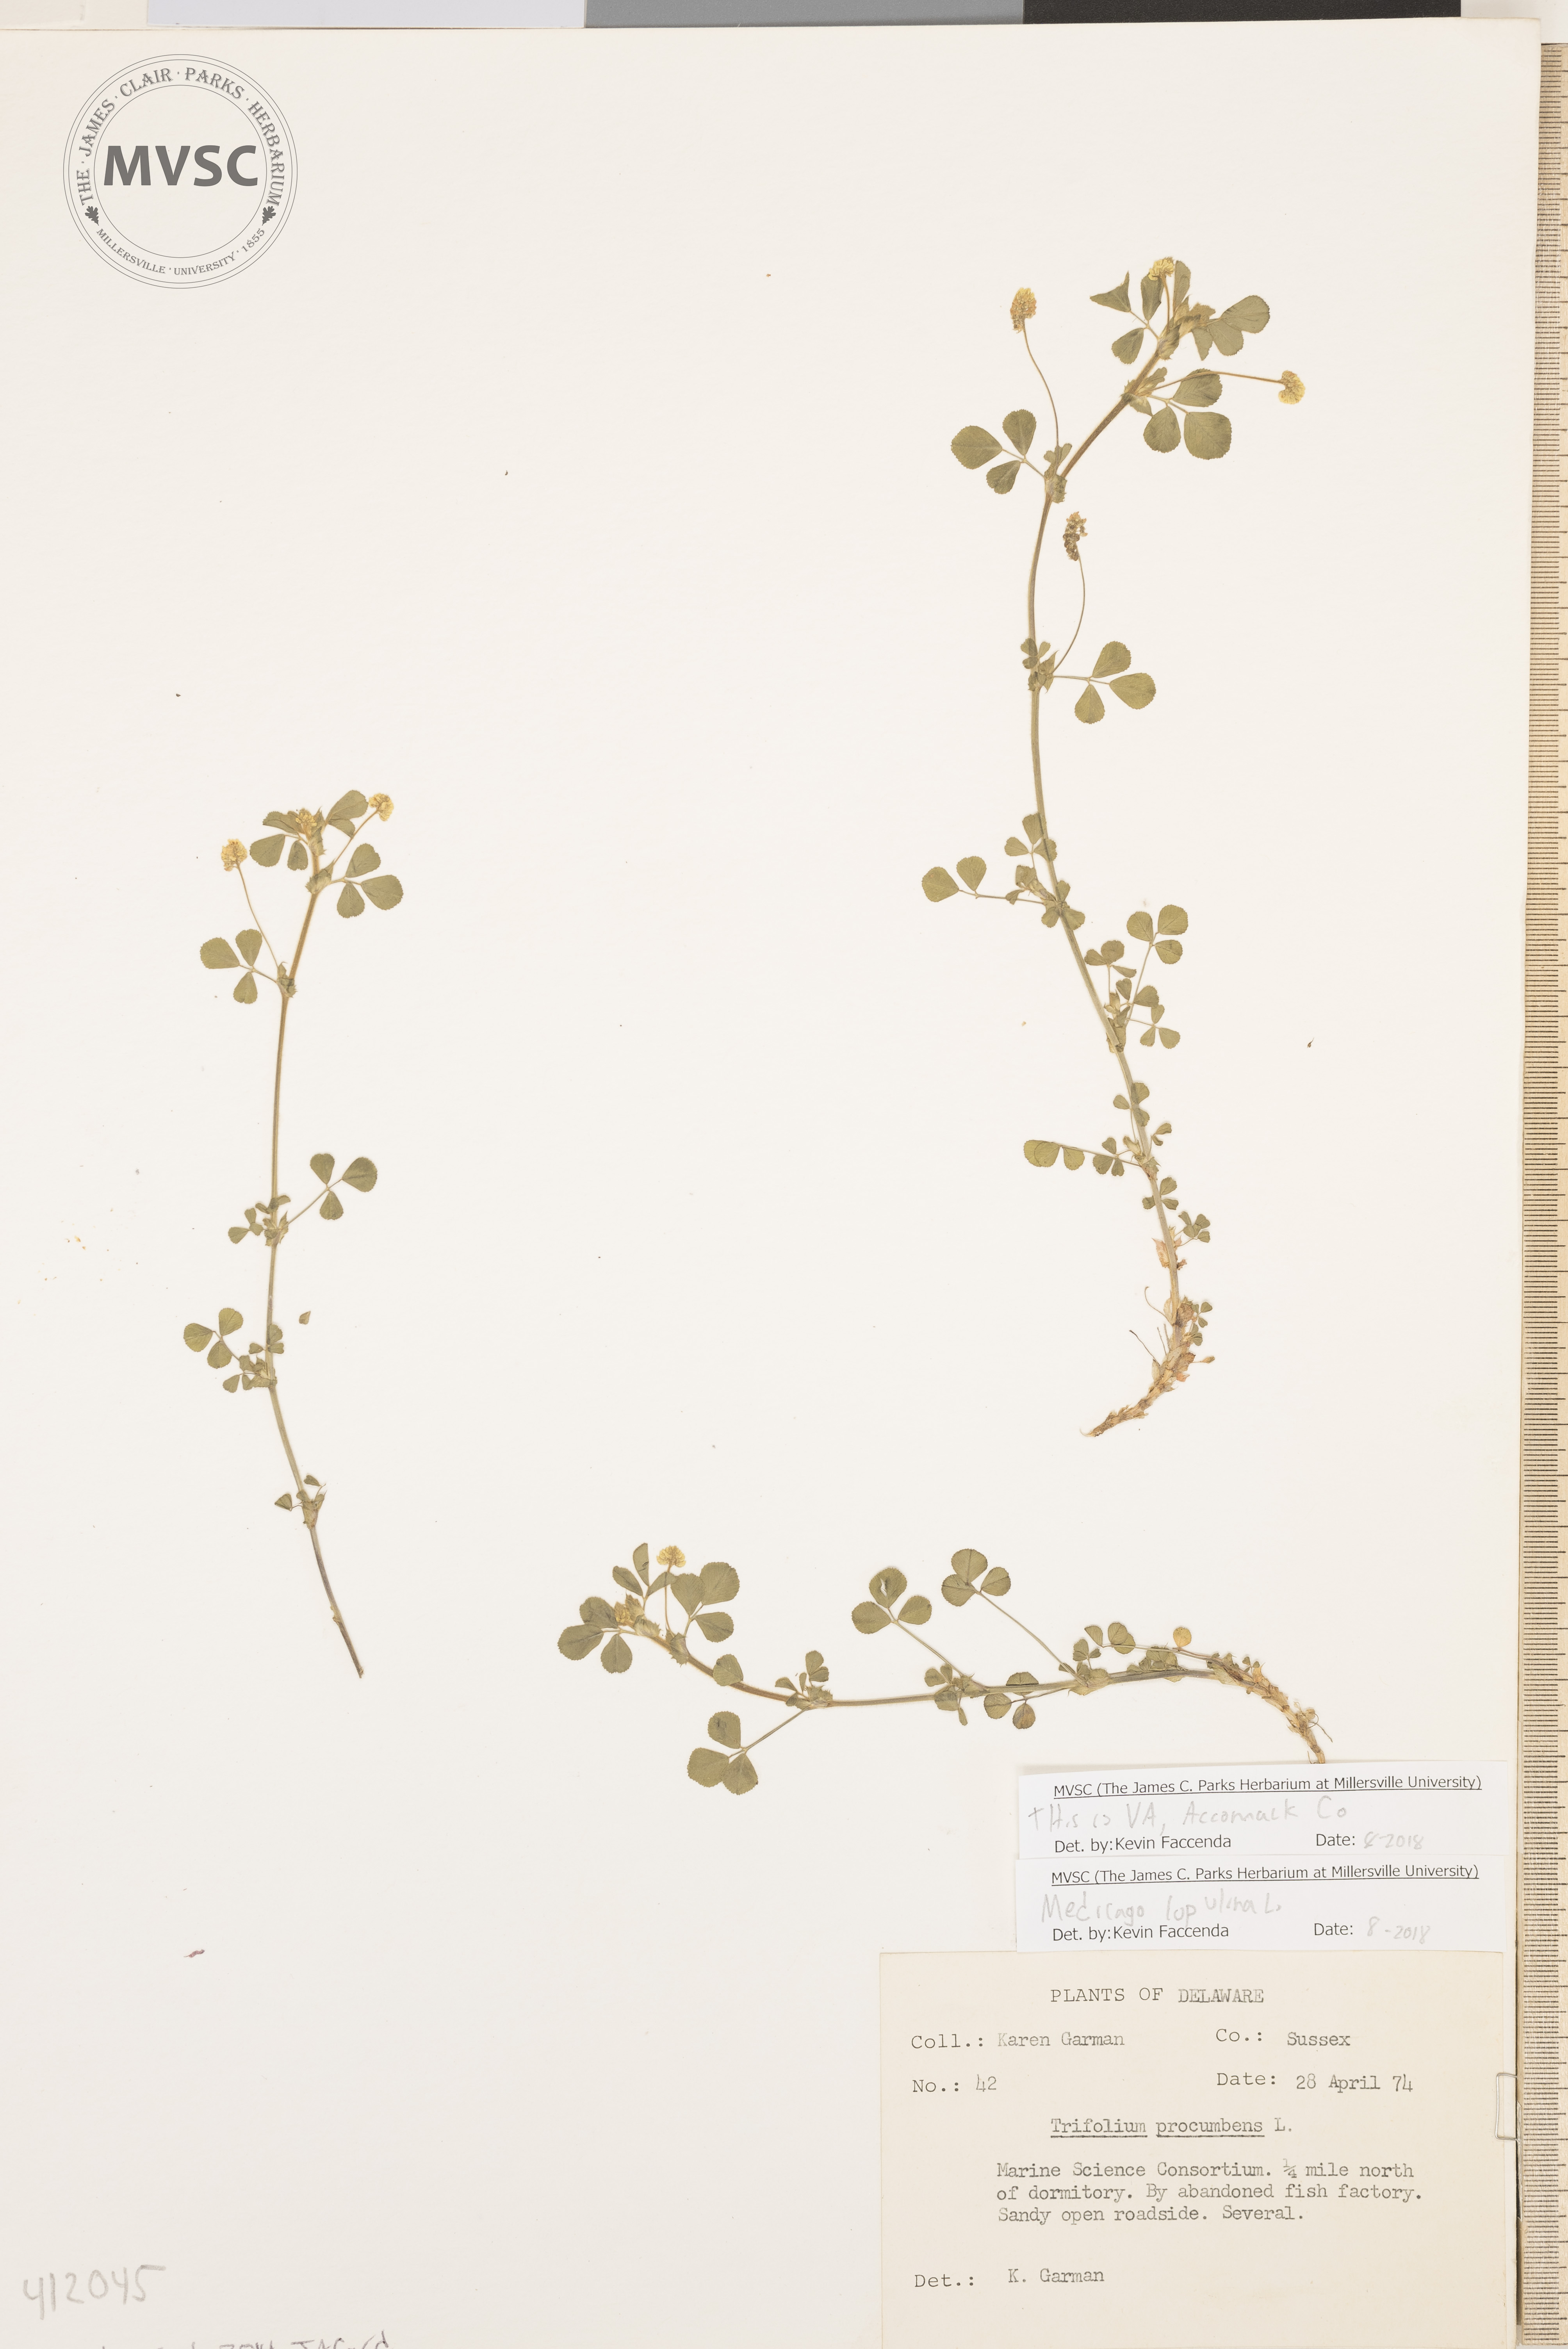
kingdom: Plantae
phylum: Tracheophyta
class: Magnoliopsida
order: Fabales
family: Fabaceae
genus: Medicago
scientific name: Medicago lupulina
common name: Black medick
